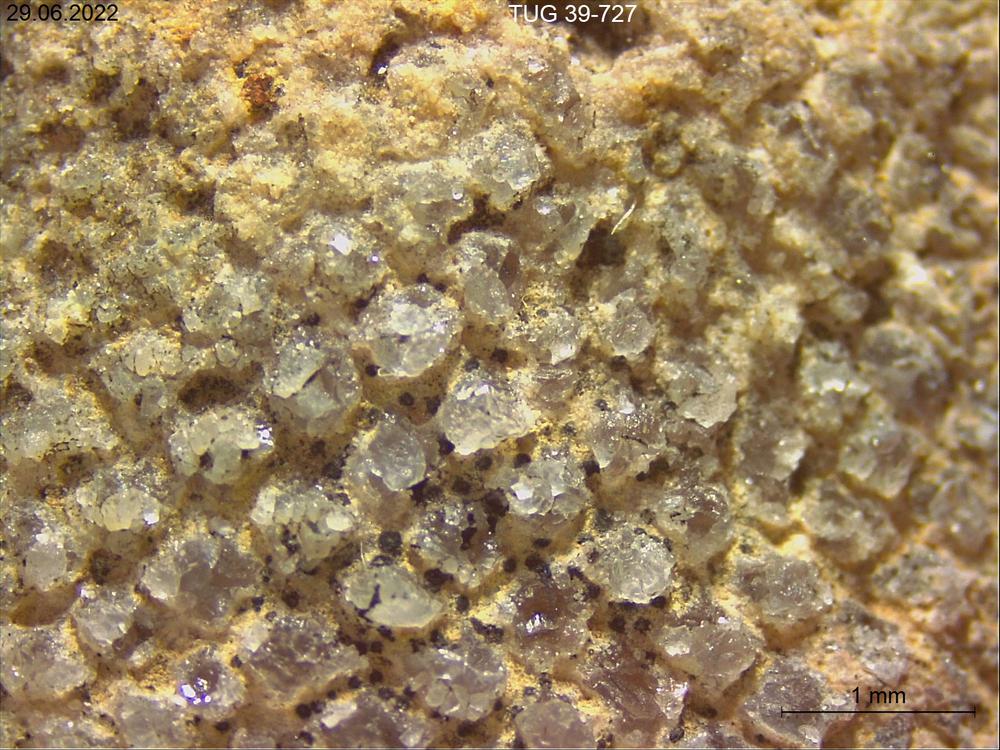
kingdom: Plantae
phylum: Chlorophyta
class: Chlorophyceae
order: Receptaculitales
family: Receptaculitaceae
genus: Receptaculites
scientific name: Receptaculites
